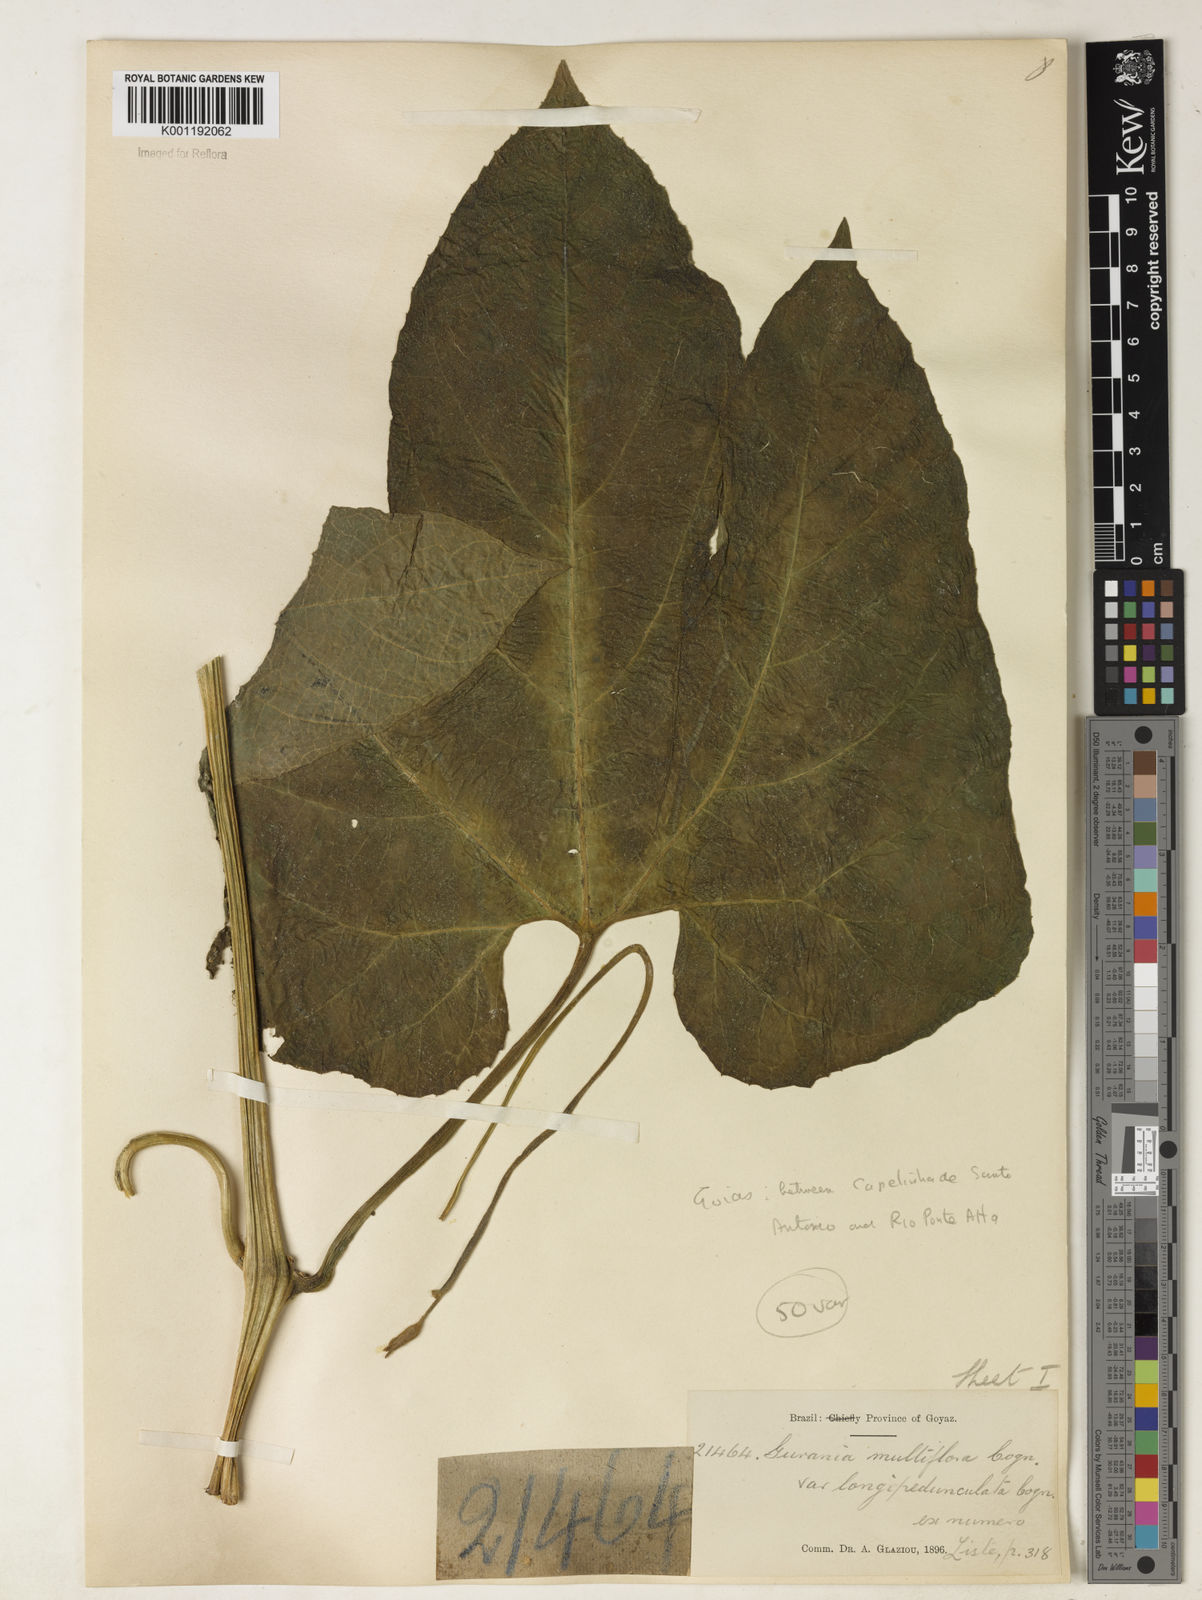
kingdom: Plantae
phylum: Tracheophyta
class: Magnoliopsida
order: Cucurbitales
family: Cucurbitaceae
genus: Gurania
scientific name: Gurania lobata
